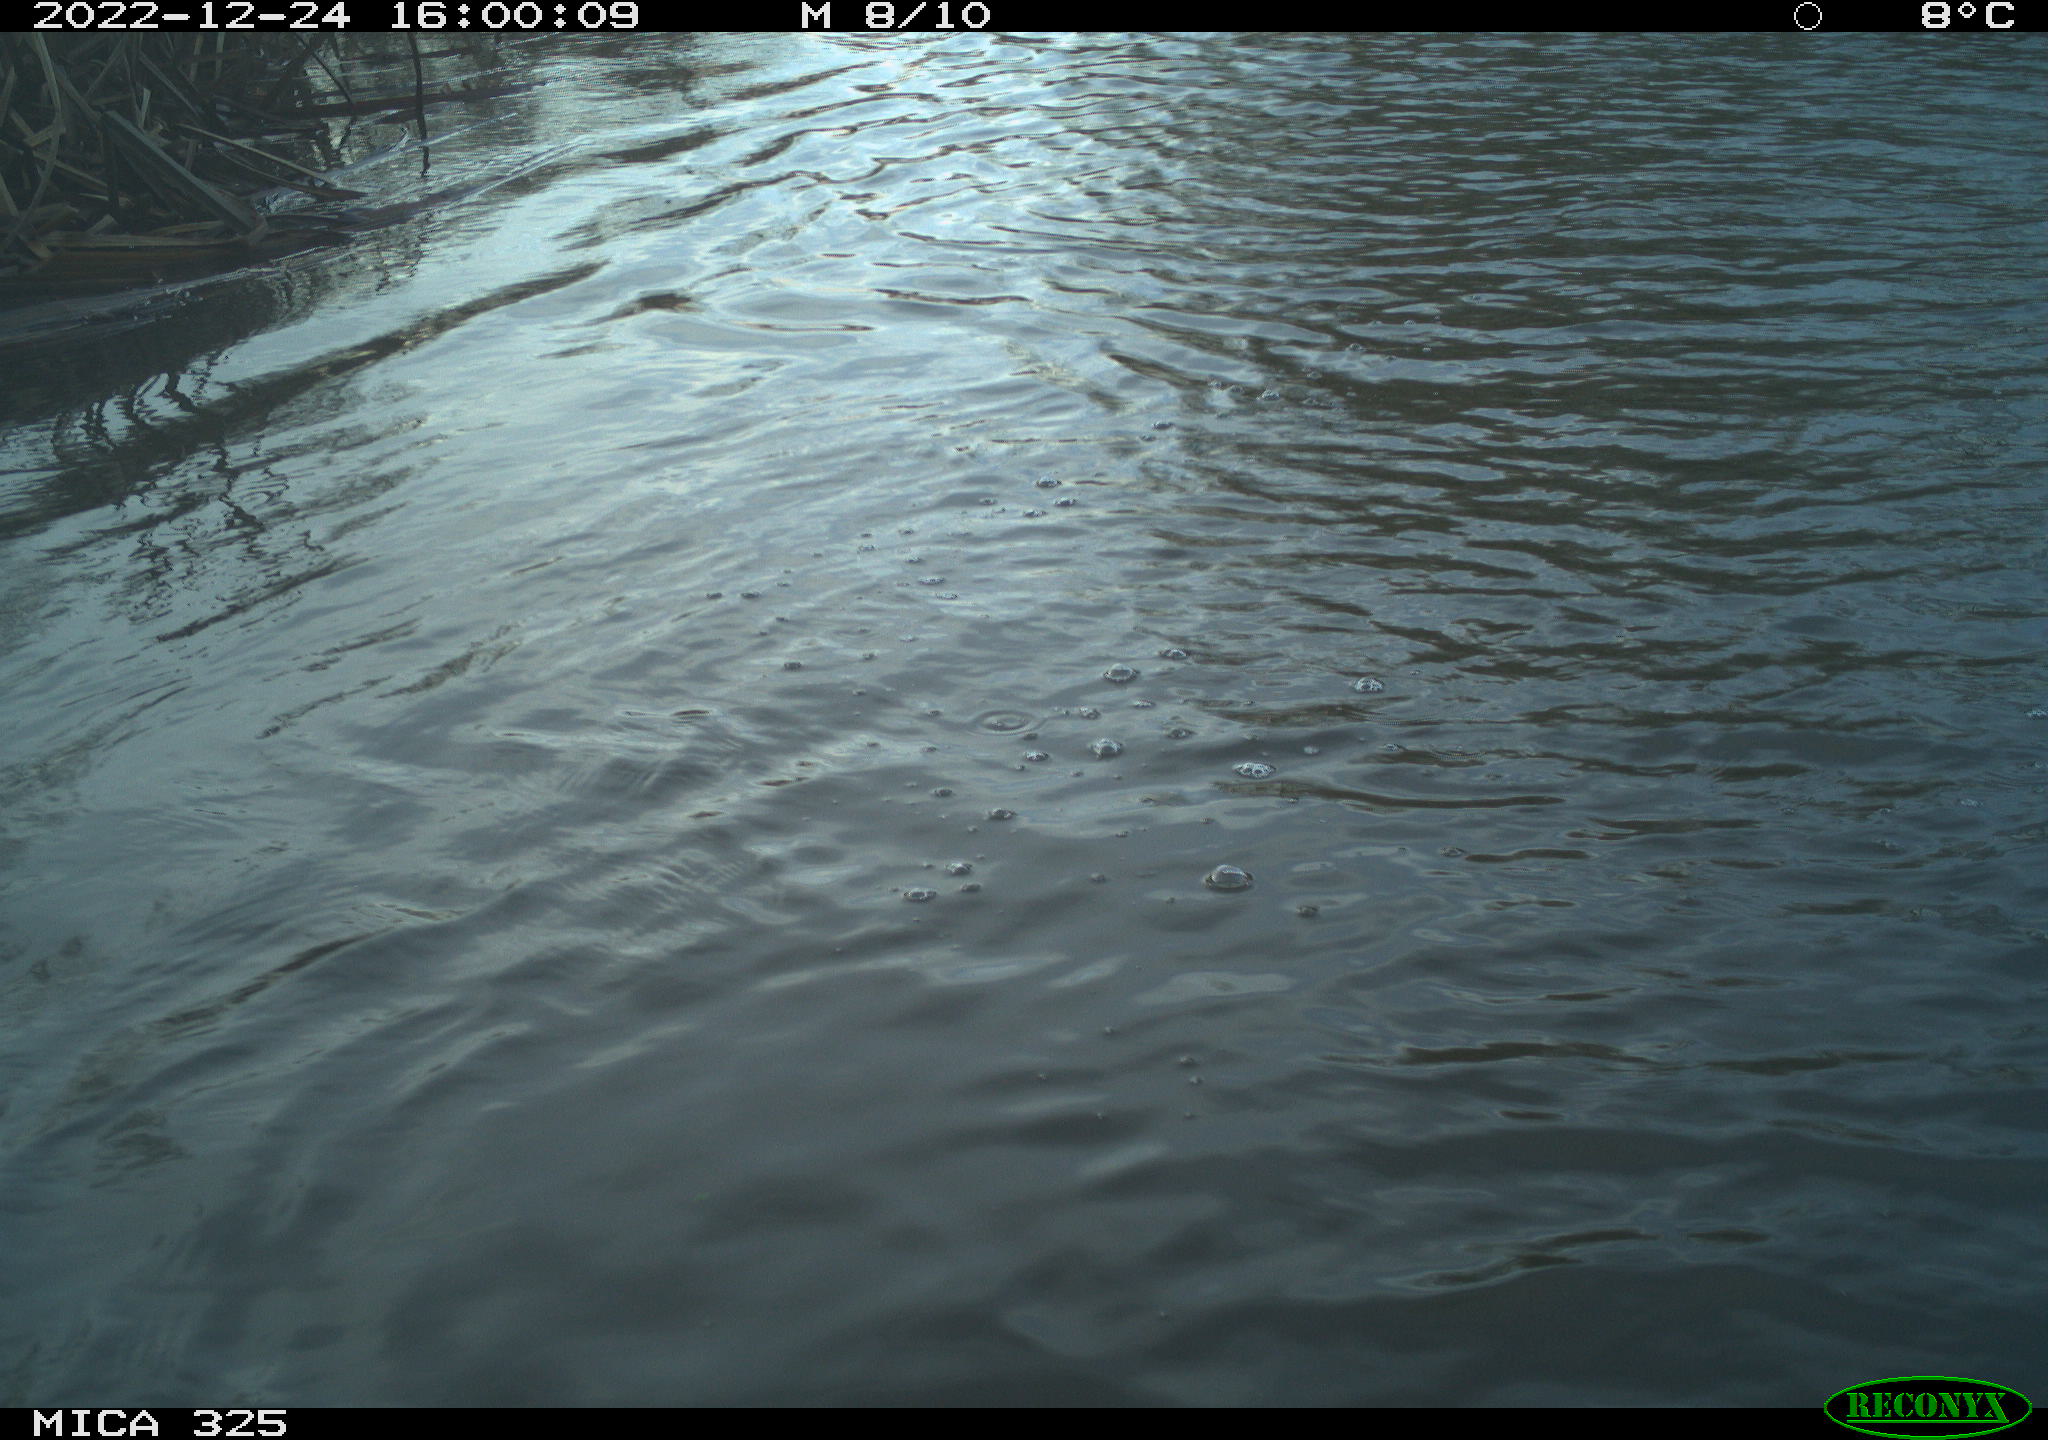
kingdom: Animalia
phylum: Chordata
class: Mammalia
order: Rodentia
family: Cricetidae
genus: Ondatra
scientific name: Ondatra zibethicus
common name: Muskrat
